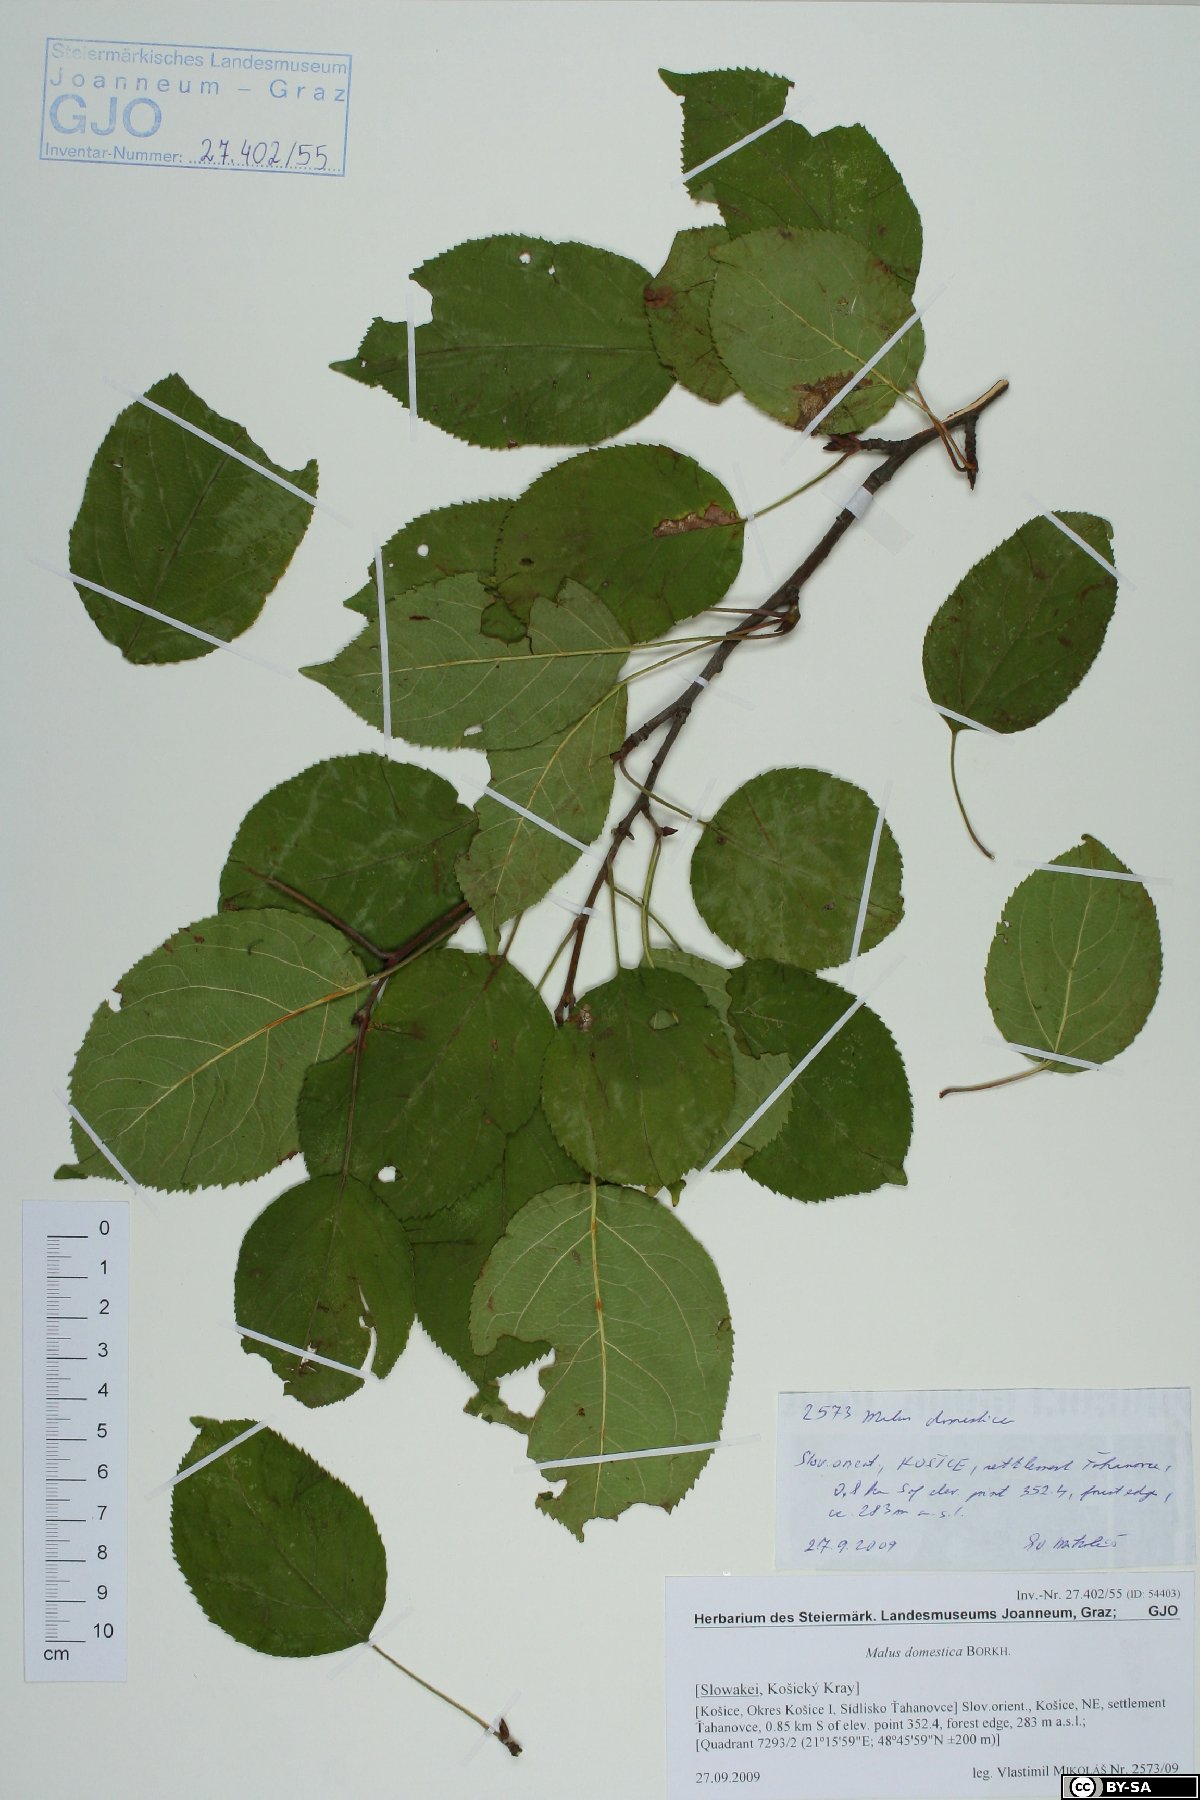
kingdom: Plantae
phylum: Tracheophyta
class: Magnoliopsida
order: Rosales
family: Rosaceae
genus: Malus
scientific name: Malus domestica
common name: Apple
